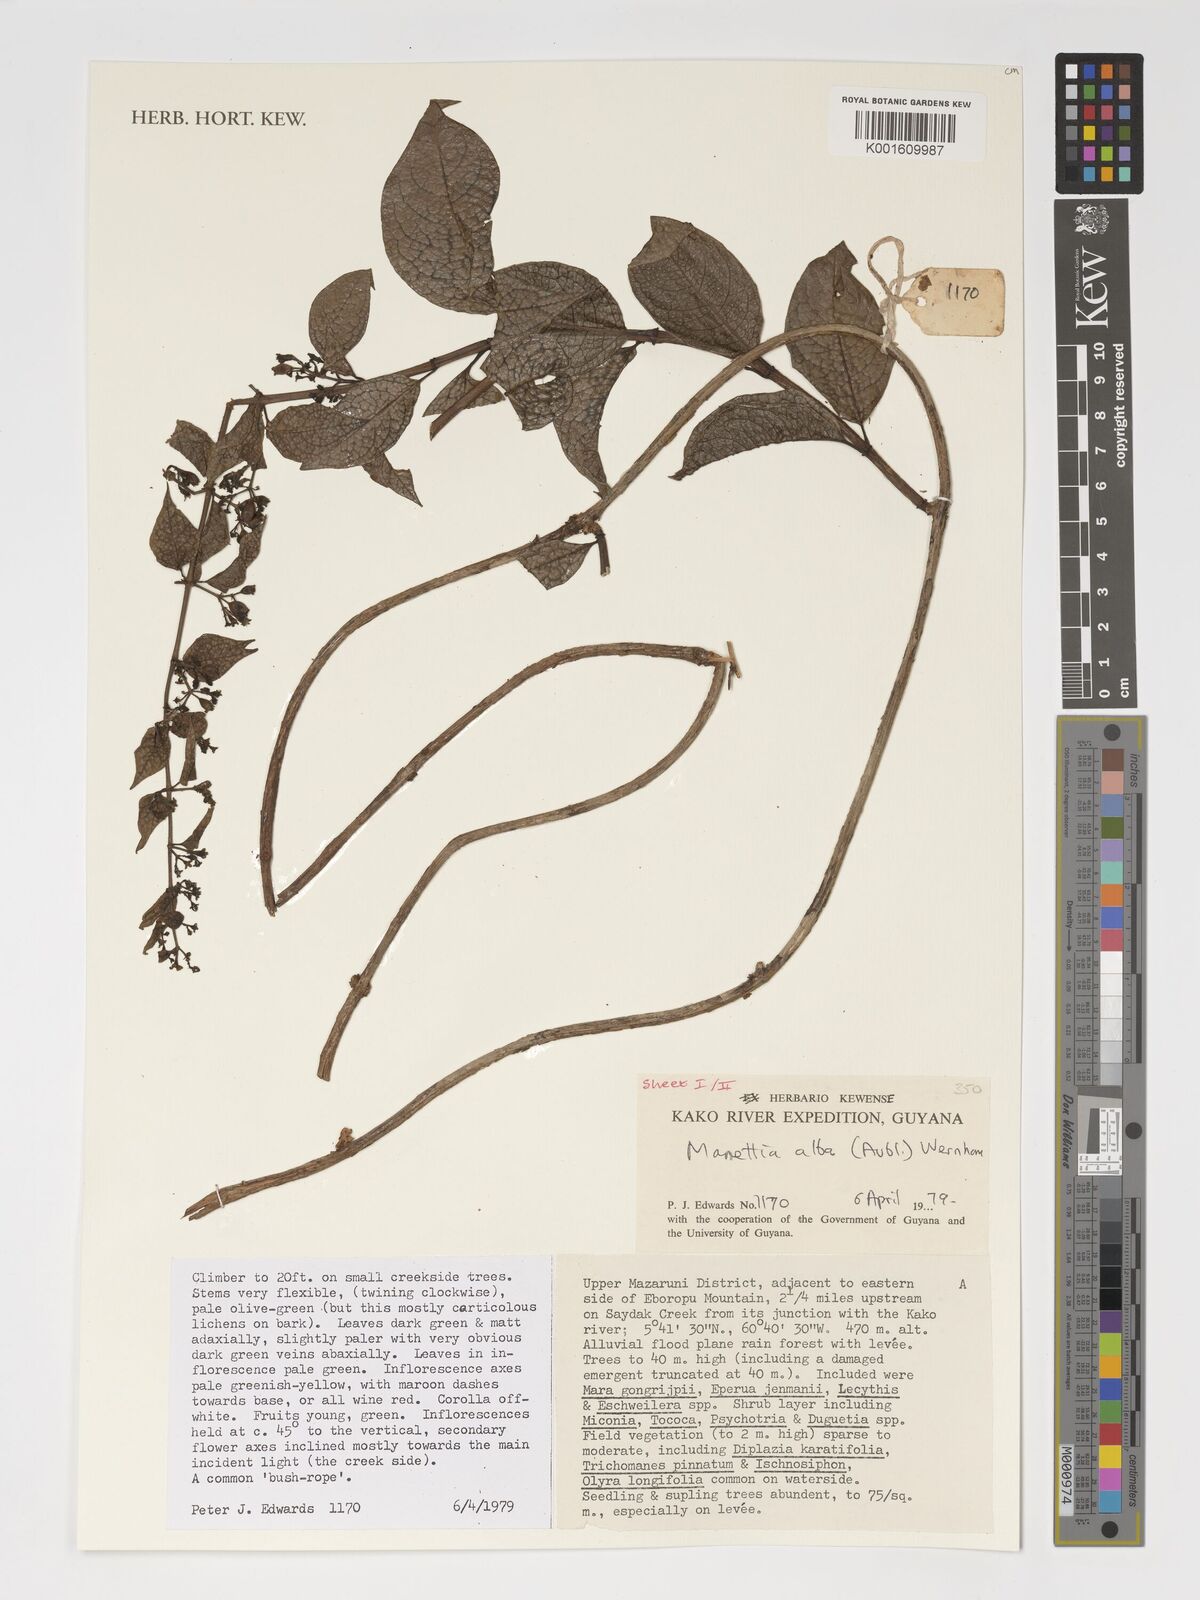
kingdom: Plantae
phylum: Tracheophyta
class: Magnoliopsida
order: Gentianales
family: Rubiaceae
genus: Manettia
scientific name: Manettia alba
